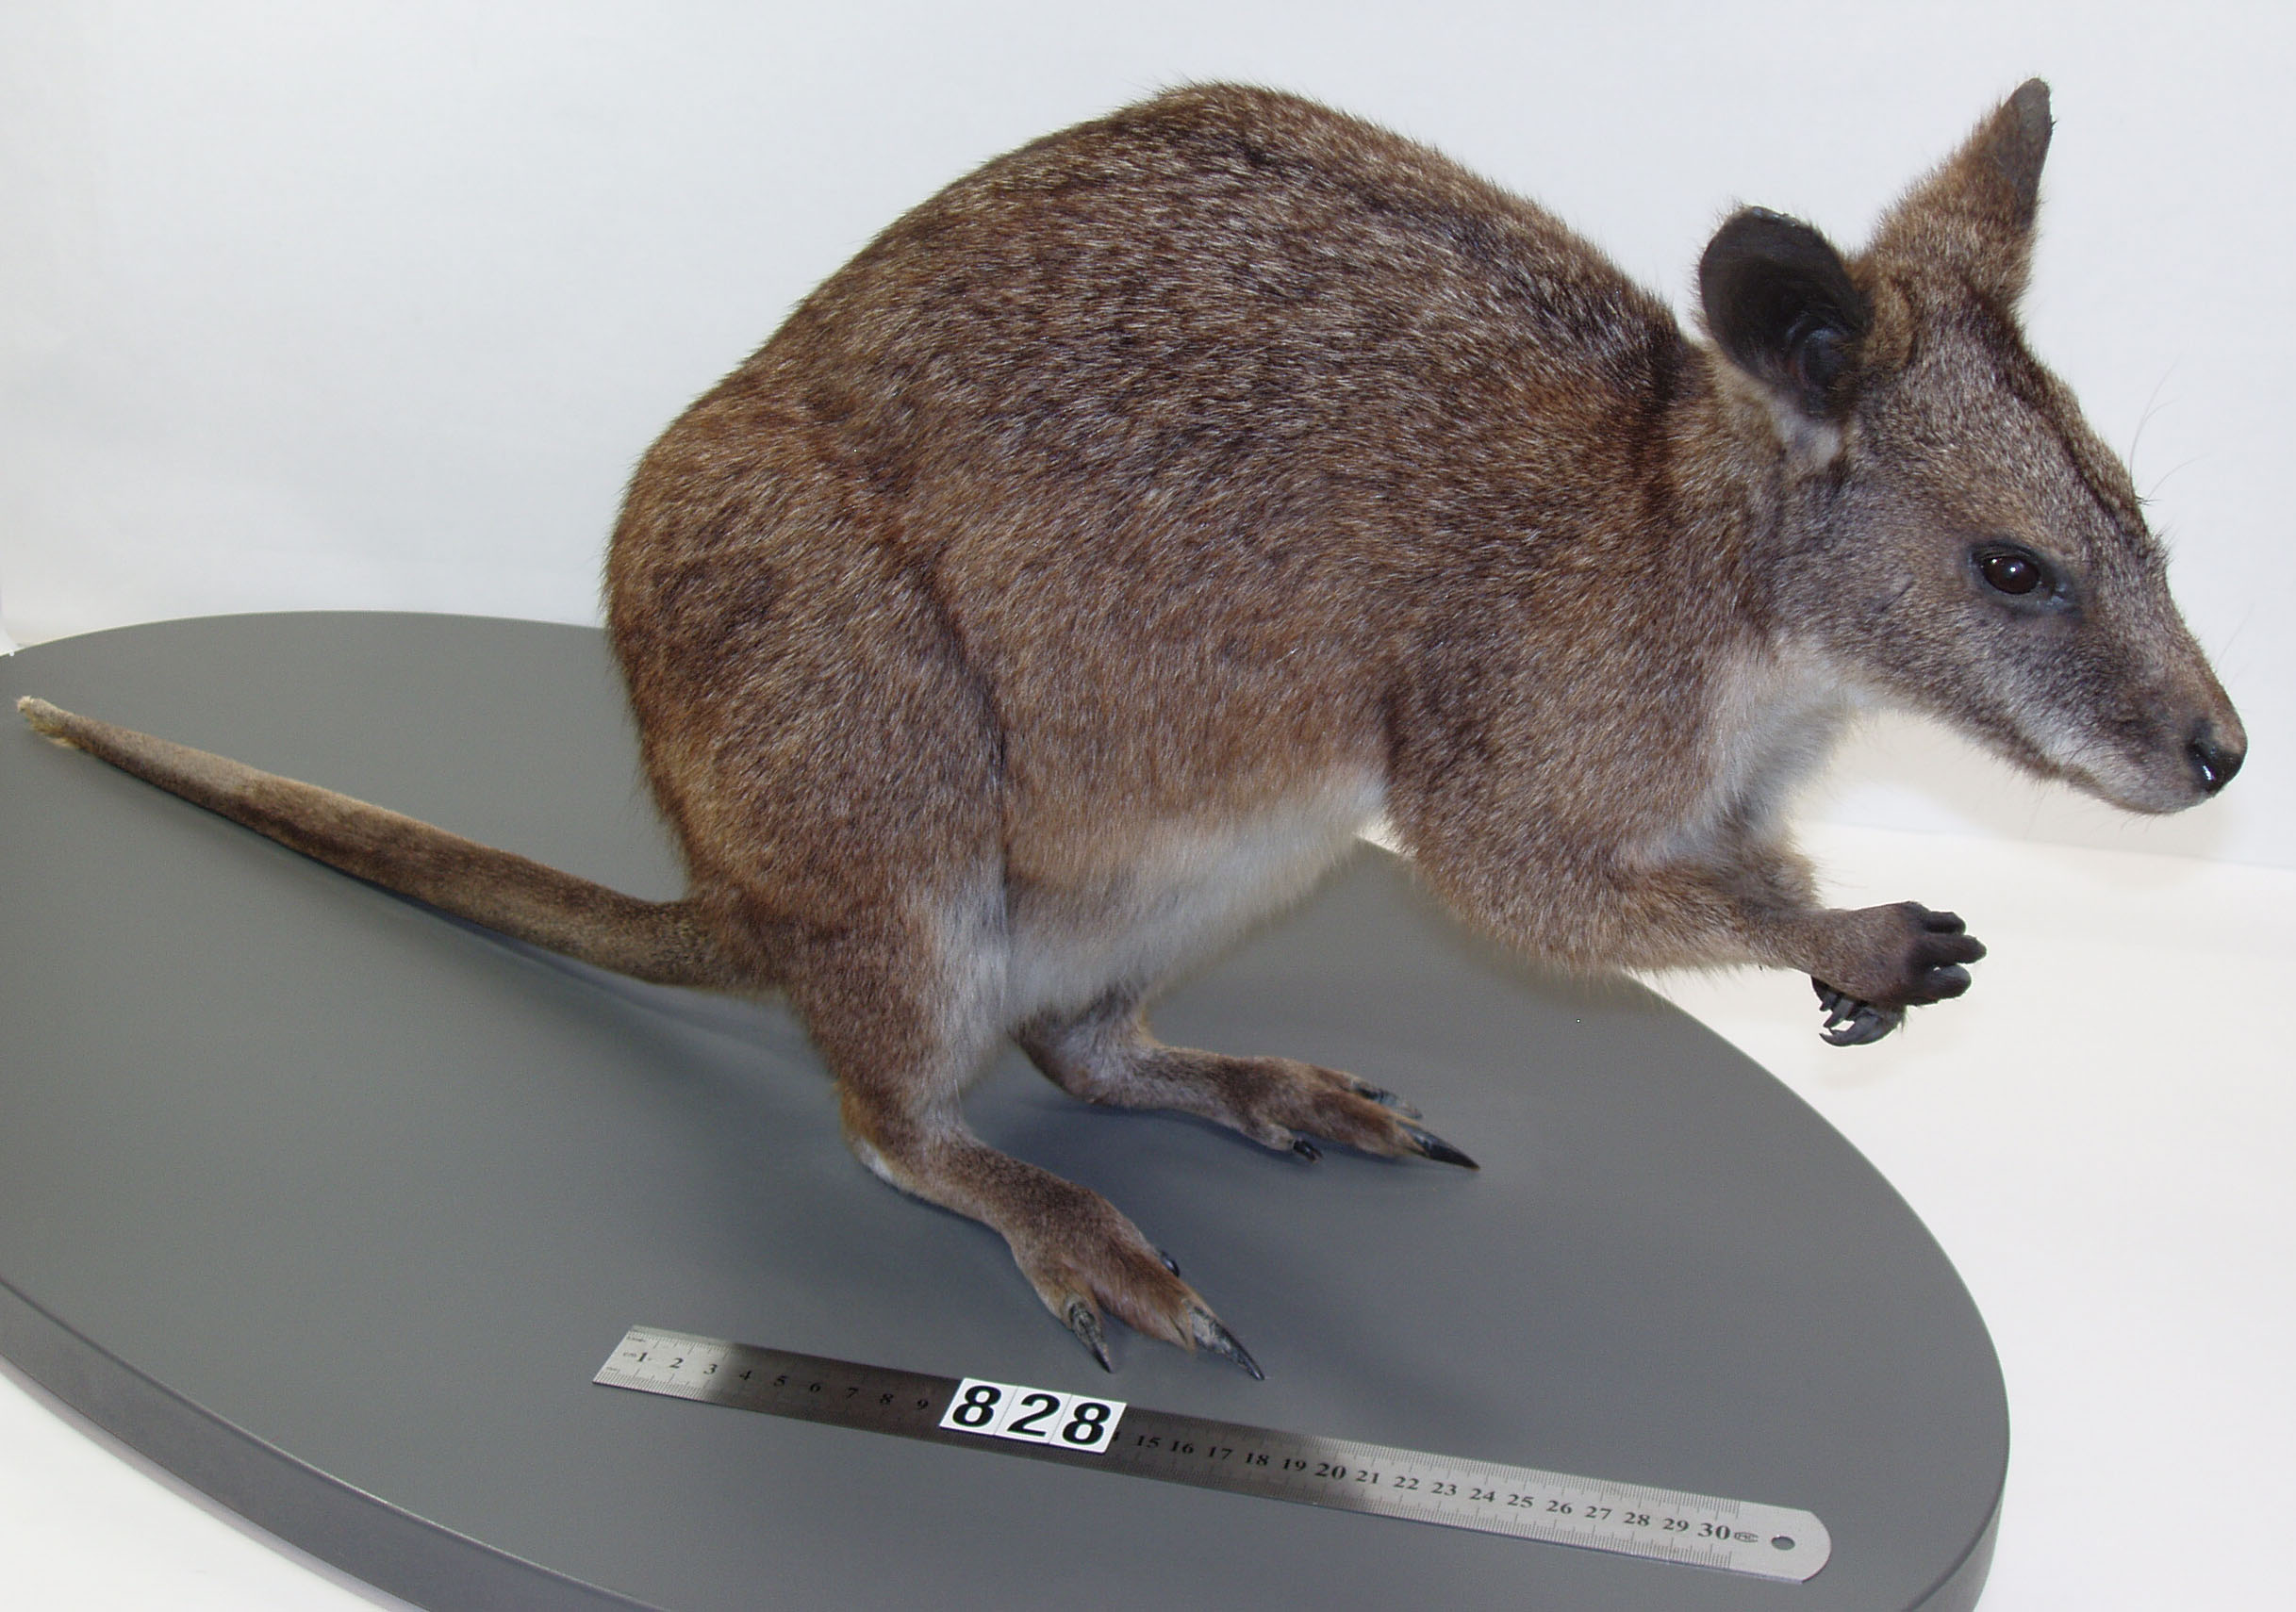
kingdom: Animalia
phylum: Chordata
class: Mammalia
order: Diprotodontia
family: Macropodidae
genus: Macropus
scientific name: Macropus parma
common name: Parma wallaby
